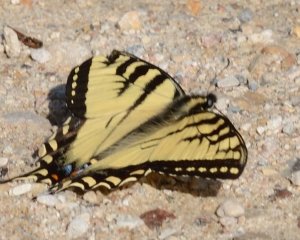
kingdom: Animalia
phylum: Arthropoda
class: Insecta
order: Lepidoptera
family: Papilionidae
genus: Pterourus
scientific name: Pterourus canadensis
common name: Canadian Tiger Swallowtail
